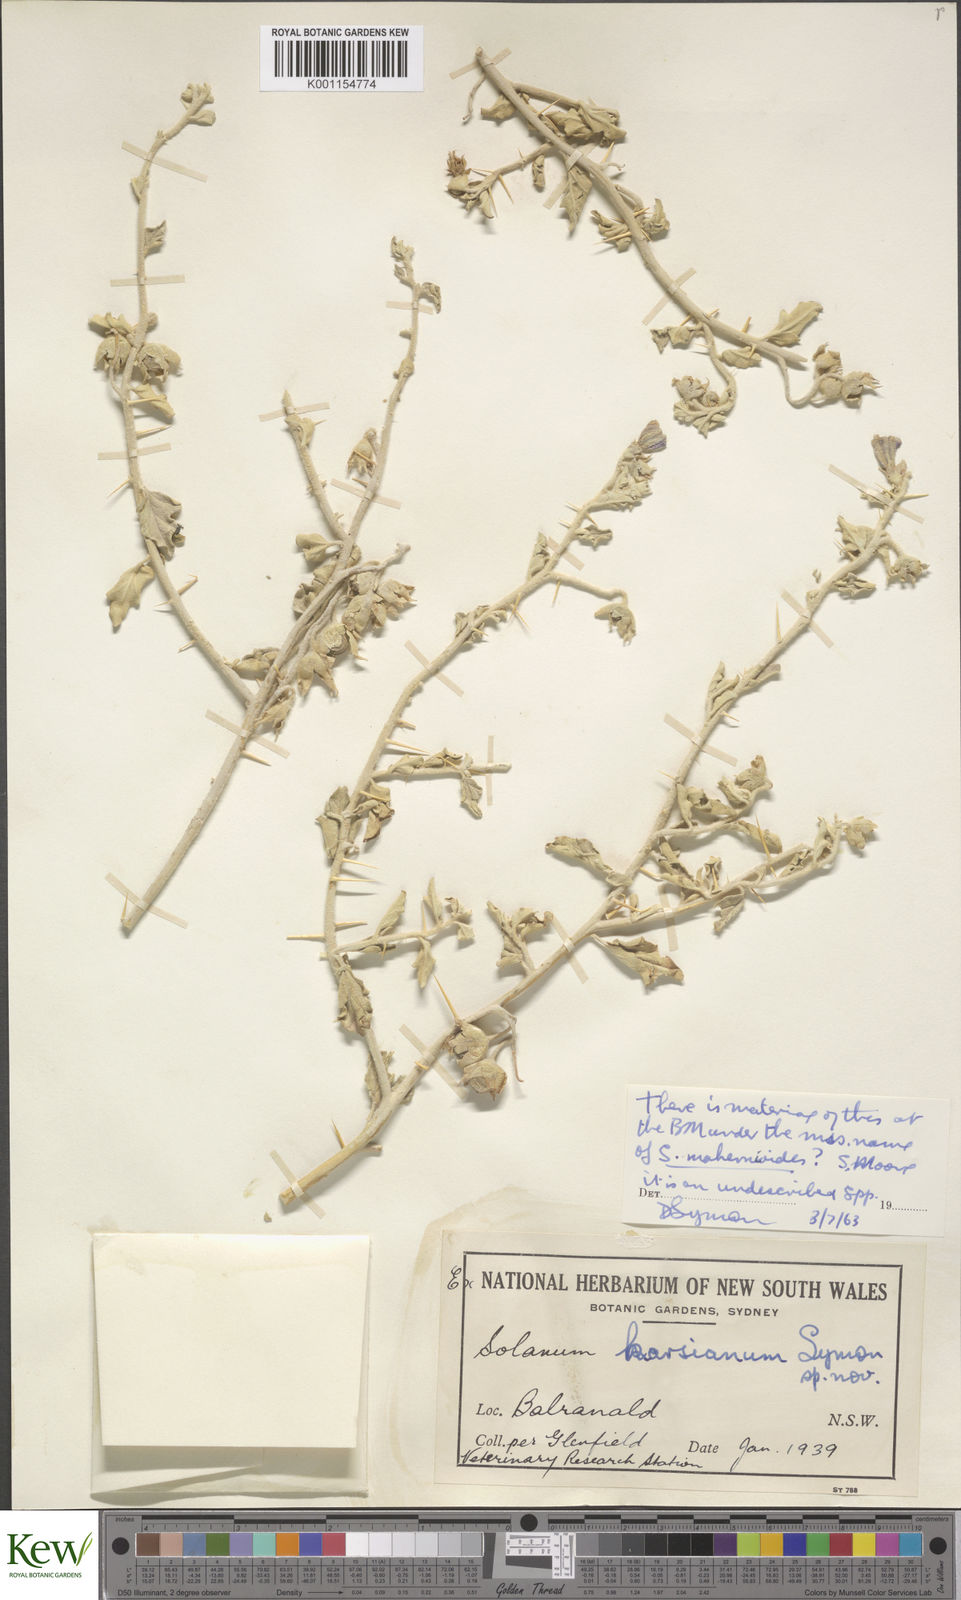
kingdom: Plantae
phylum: Tracheophyta
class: Magnoliopsida
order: Solanales
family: Solanaceae
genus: Solanum
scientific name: Solanum karsense
